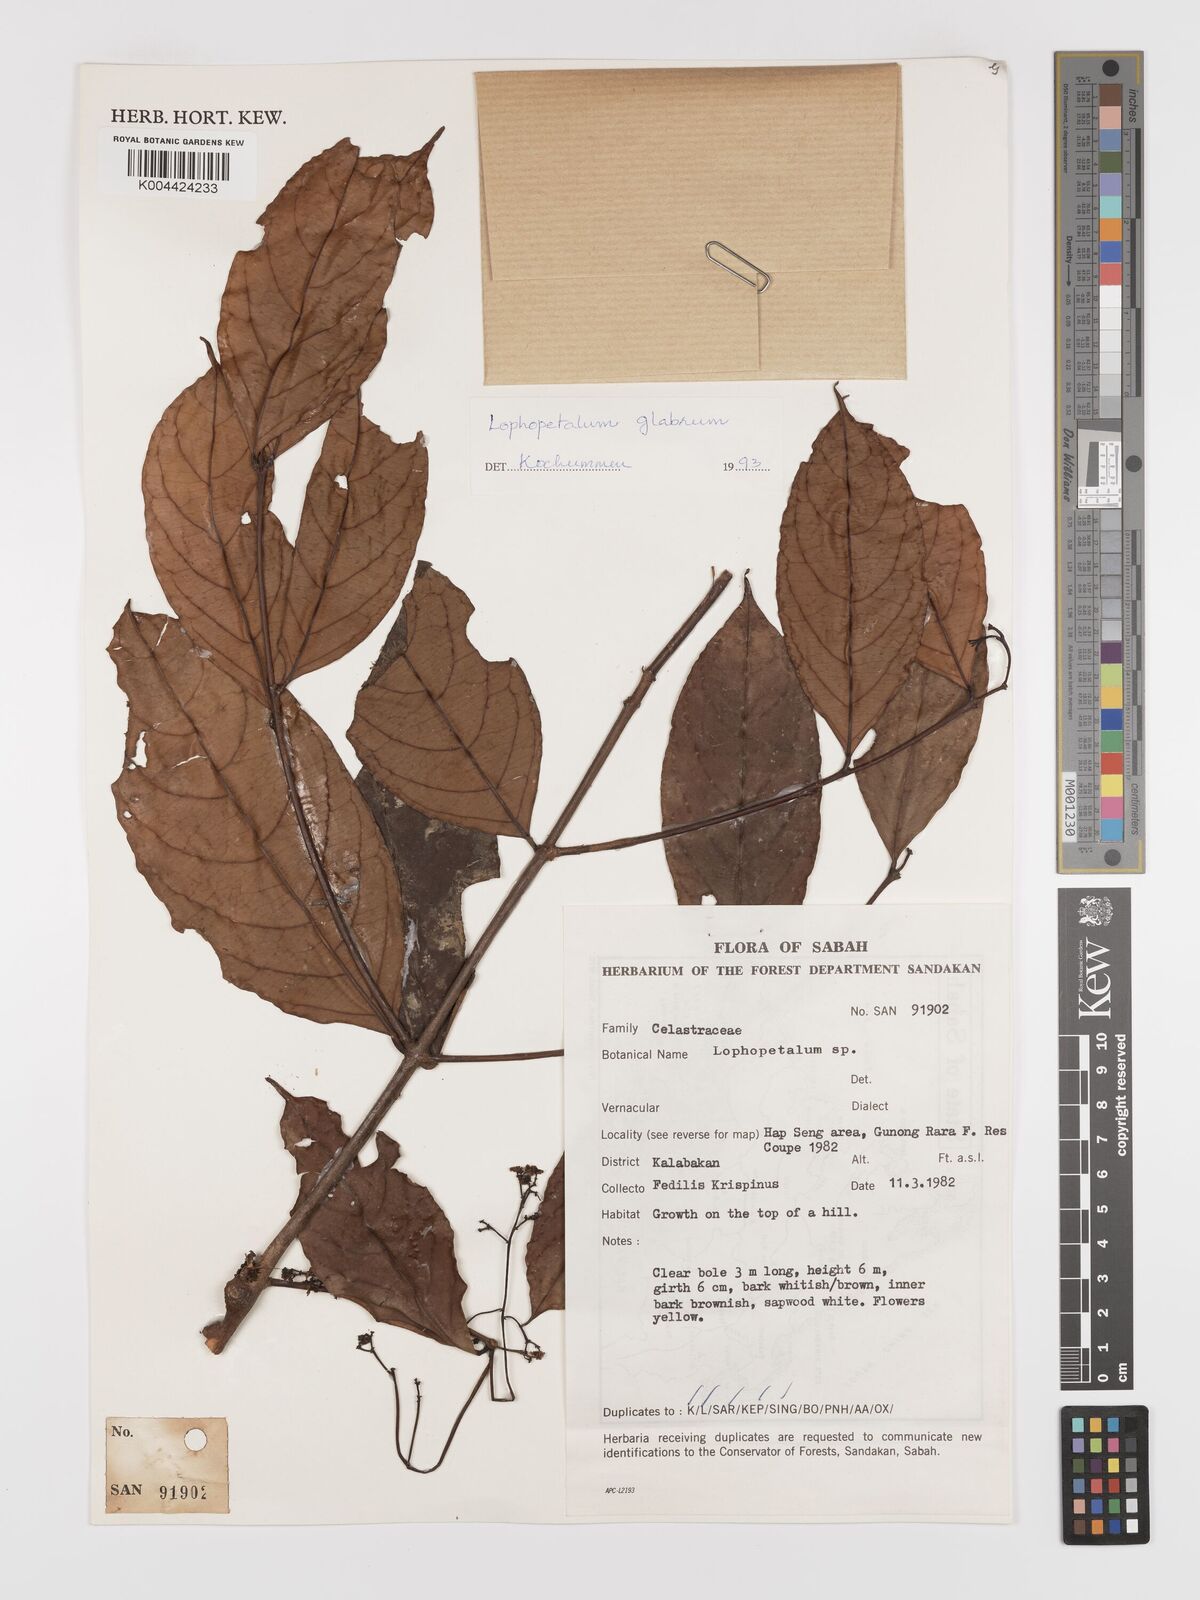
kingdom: Plantae
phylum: Tracheophyta
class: Magnoliopsida
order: Celastrales
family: Celastraceae
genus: Lophopetalum
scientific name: Lophopetalum glabrum
